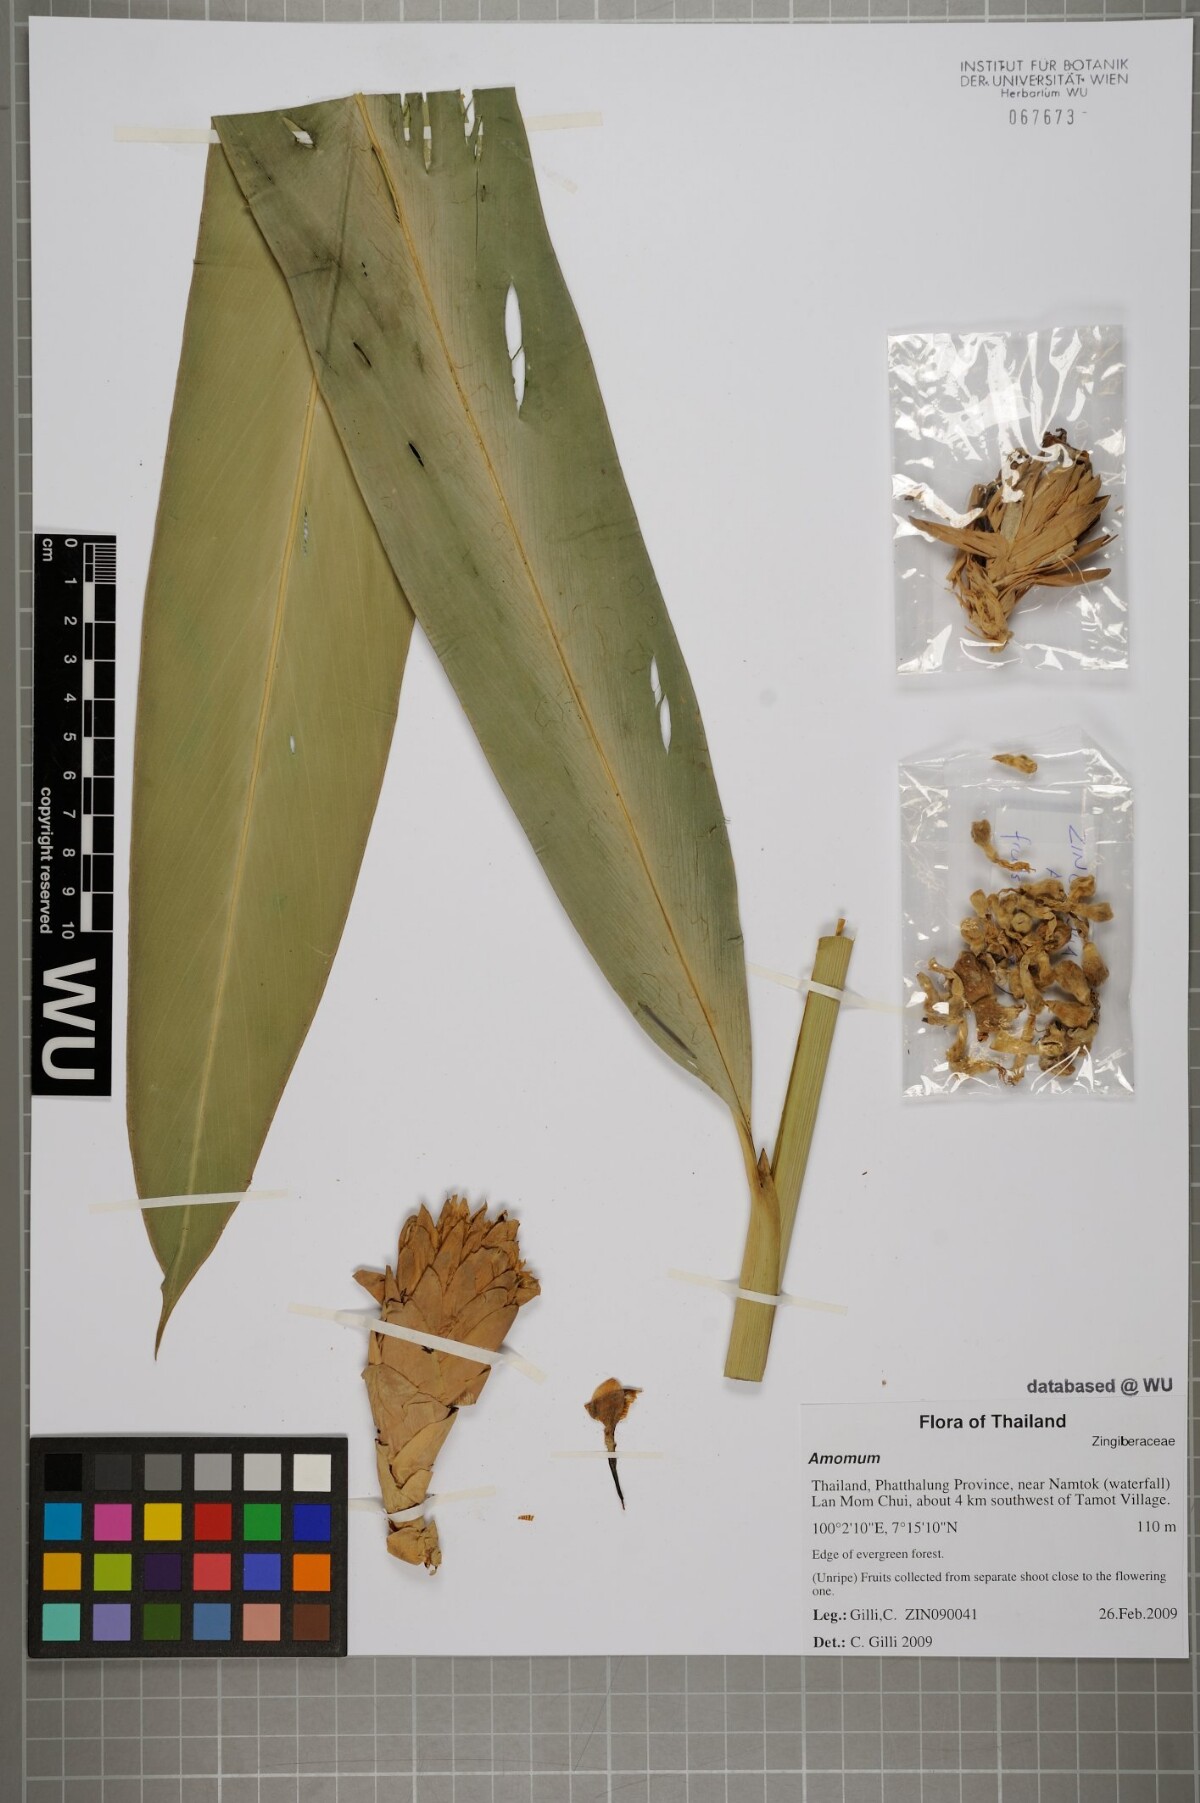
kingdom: Plantae
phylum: Tracheophyta
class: Liliopsida
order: Zingiberales
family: Zingiberaceae
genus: Amomum
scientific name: Amomum
